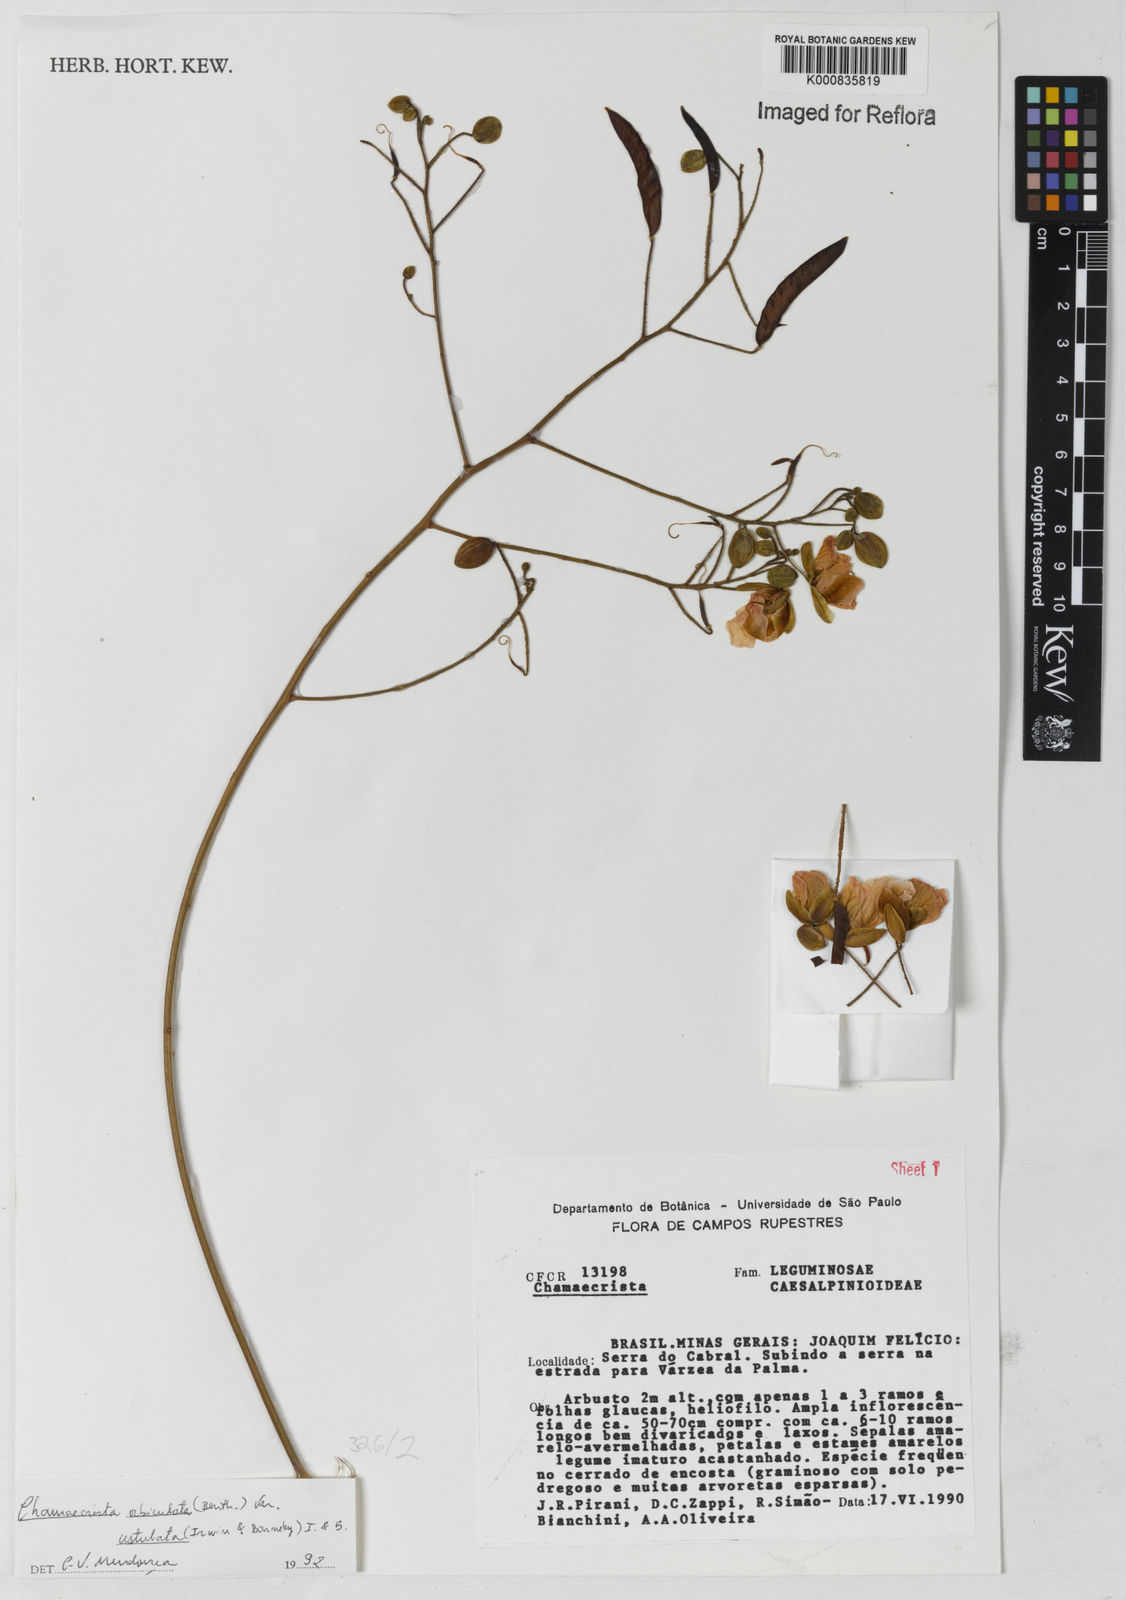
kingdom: Plantae
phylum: Tracheophyta
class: Magnoliopsida
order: Fabales
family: Fabaceae
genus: Chamaecrista
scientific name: Chamaecrista ustulata
